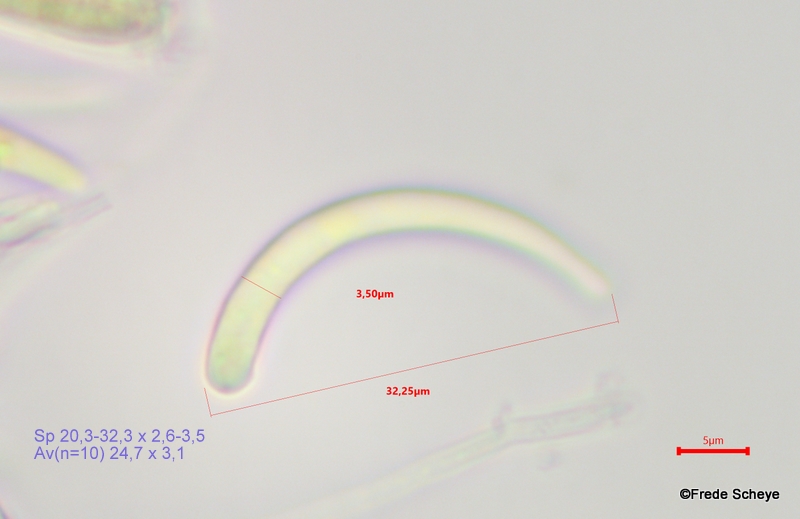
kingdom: Fungi
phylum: Ascomycota
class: Leotiomycetes
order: Helotiales
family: Helotiaceae
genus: Hymenoscyphus
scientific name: Hymenoscyphus serotinus
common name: krumsporet stilkskive
